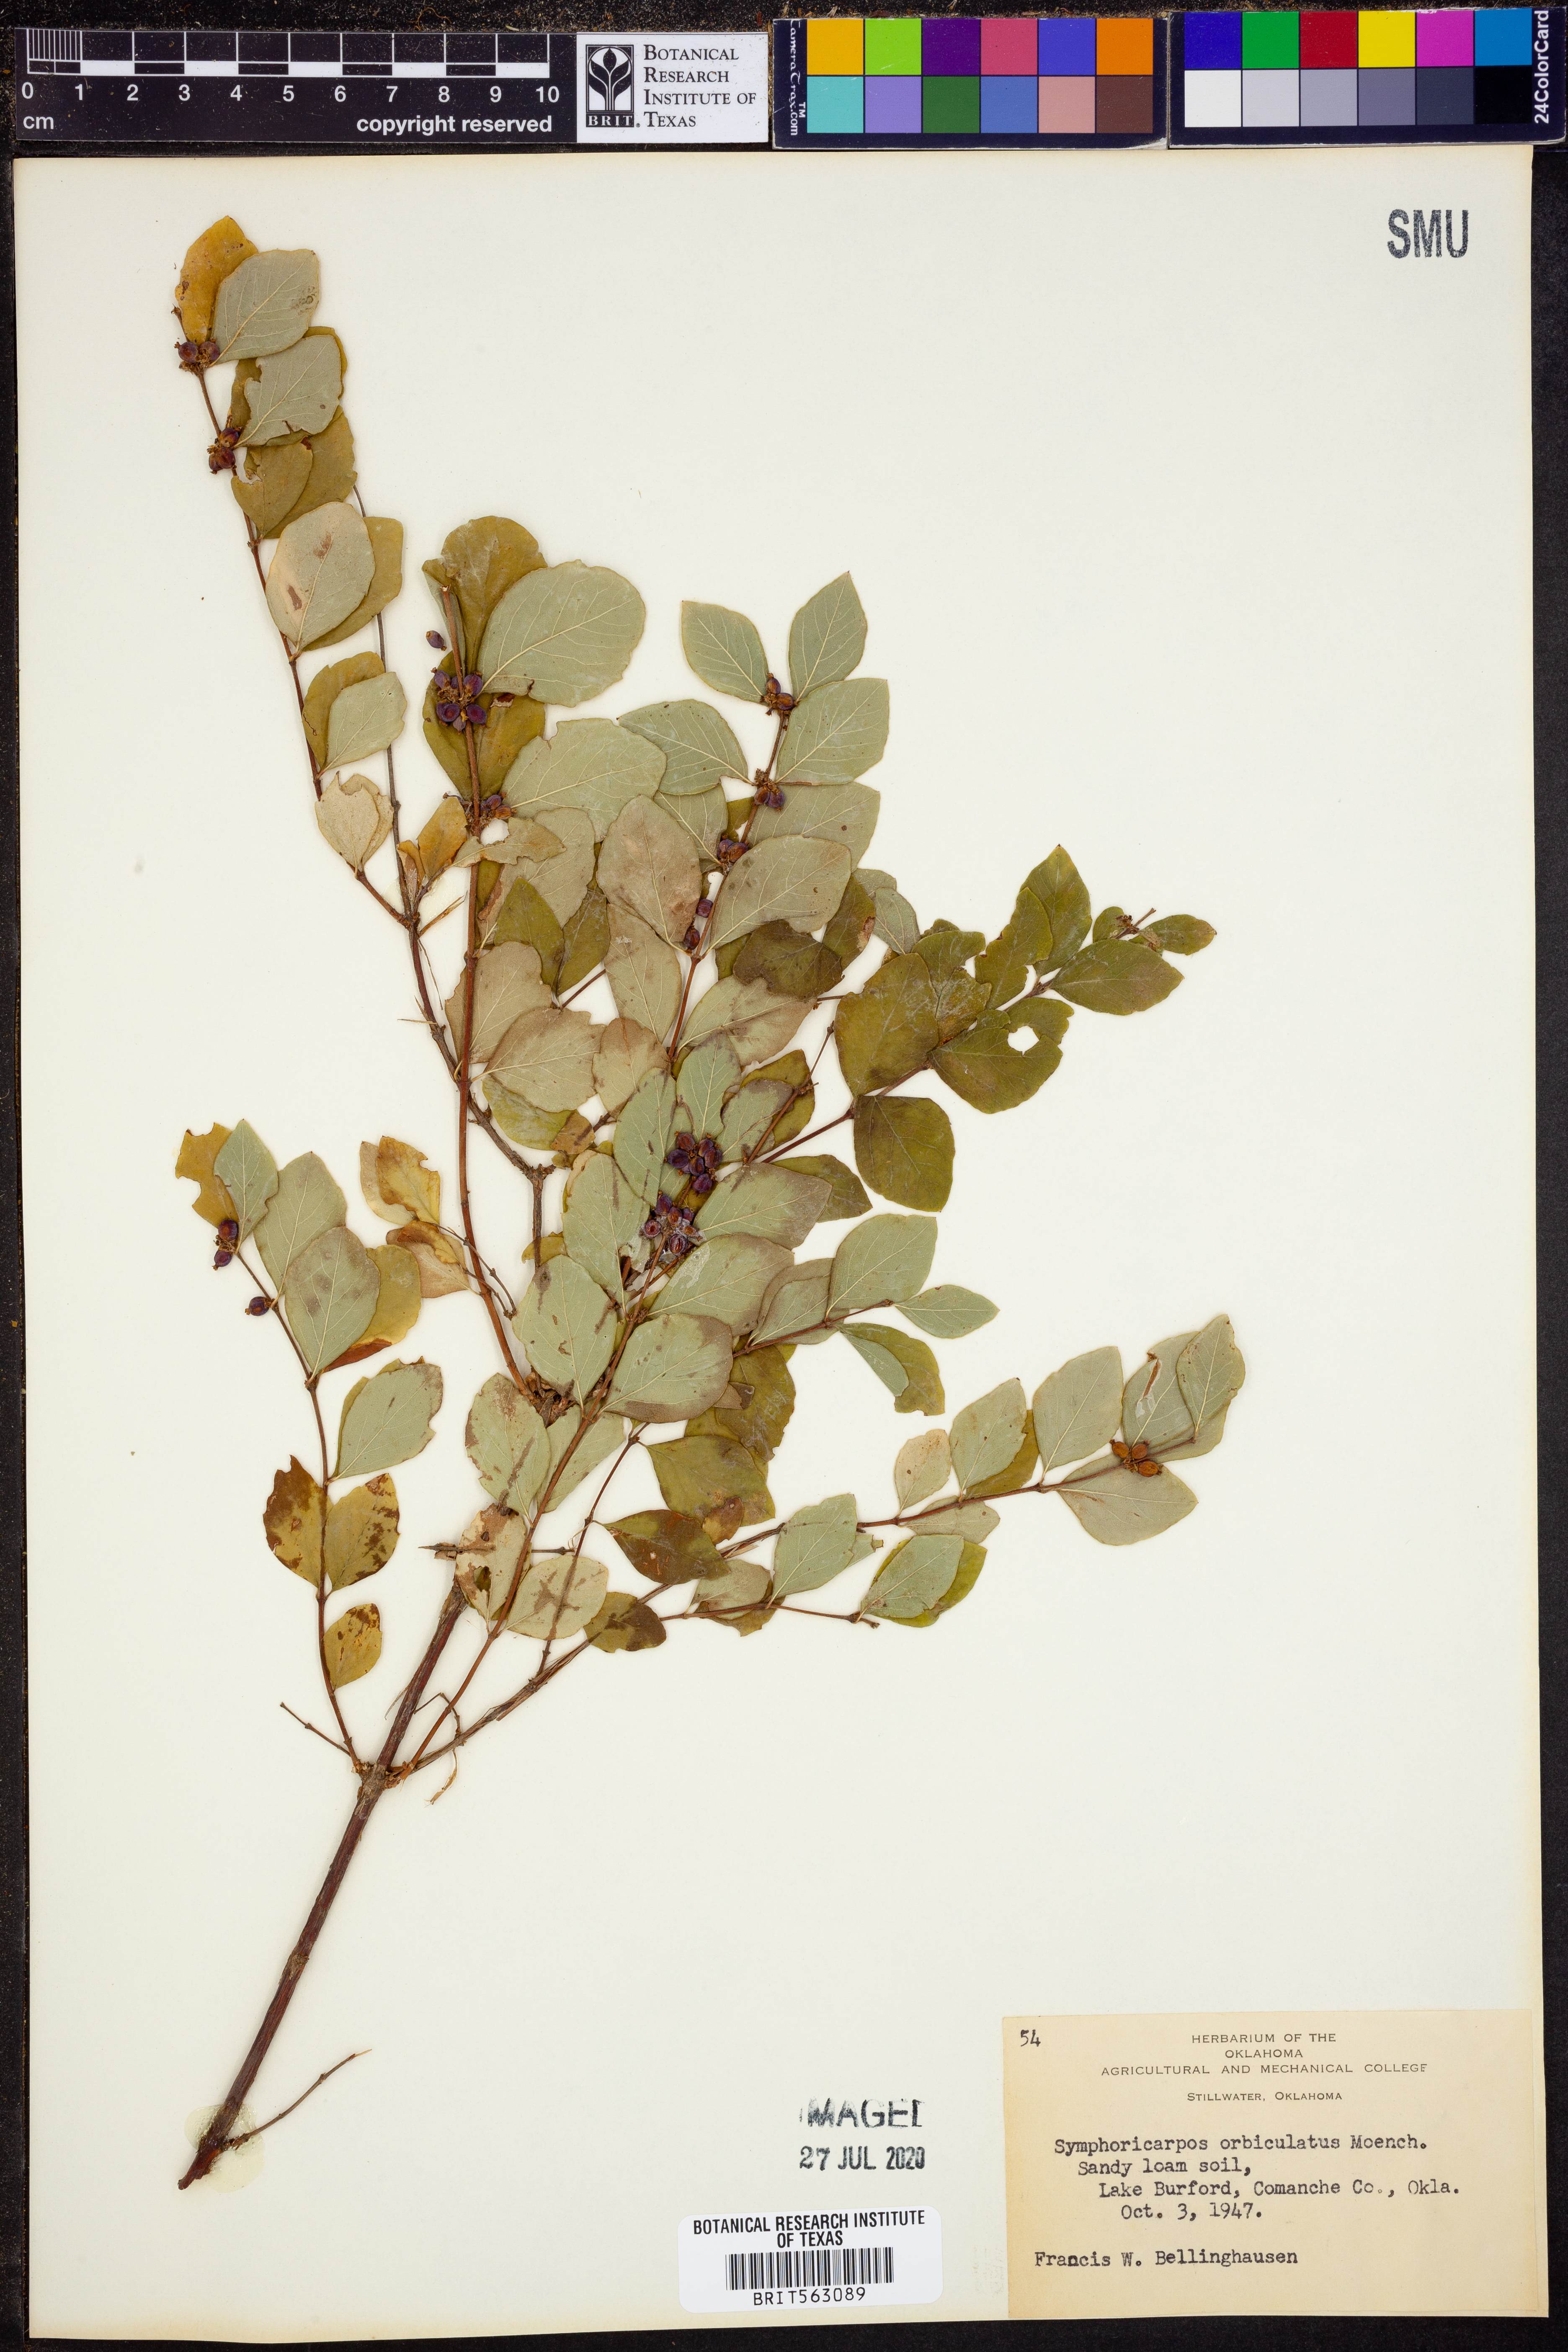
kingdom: Plantae
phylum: Tracheophyta
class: Magnoliopsida
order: Dipsacales
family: Caprifoliaceae
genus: Symphoricarpos
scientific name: Symphoricarpos orbiculatus
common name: Coralberry
